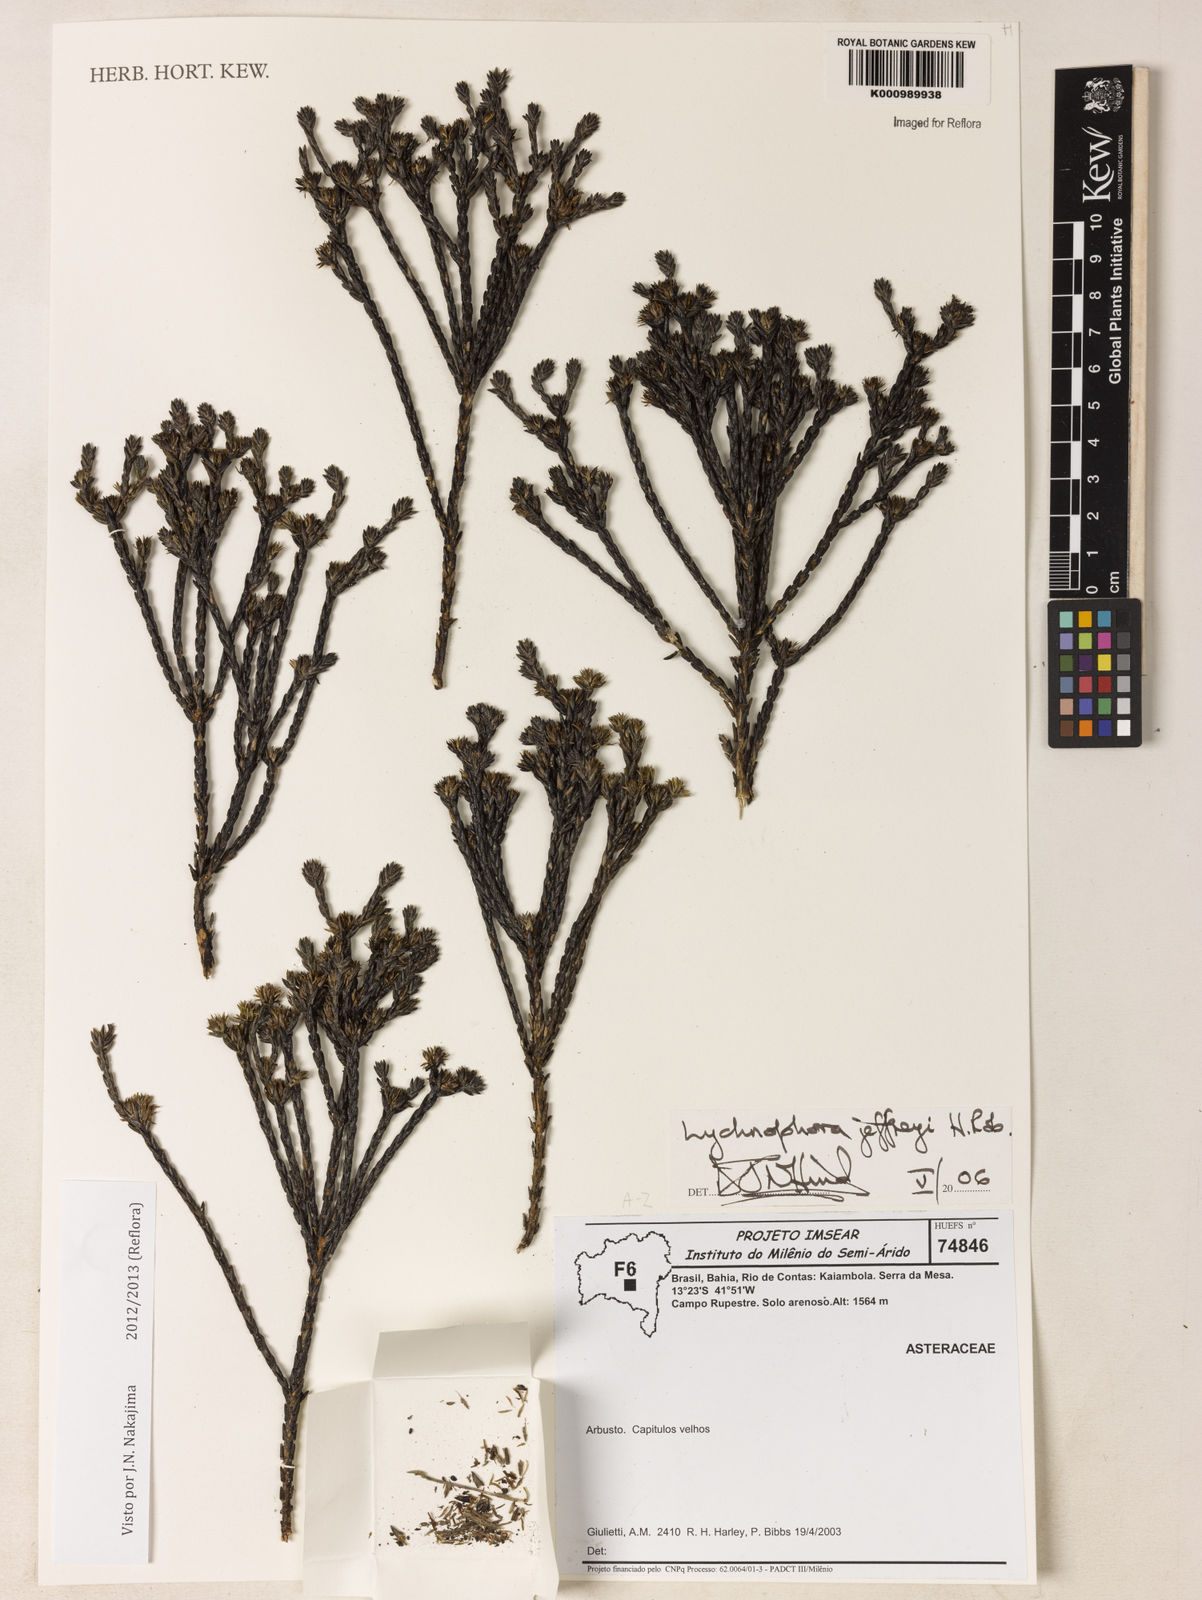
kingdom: Plantae
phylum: Tracheophyta
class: Magnoliopsida
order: Asterales
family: Asteraceae
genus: Lychnophora
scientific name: Lychnophora phylicifolia
